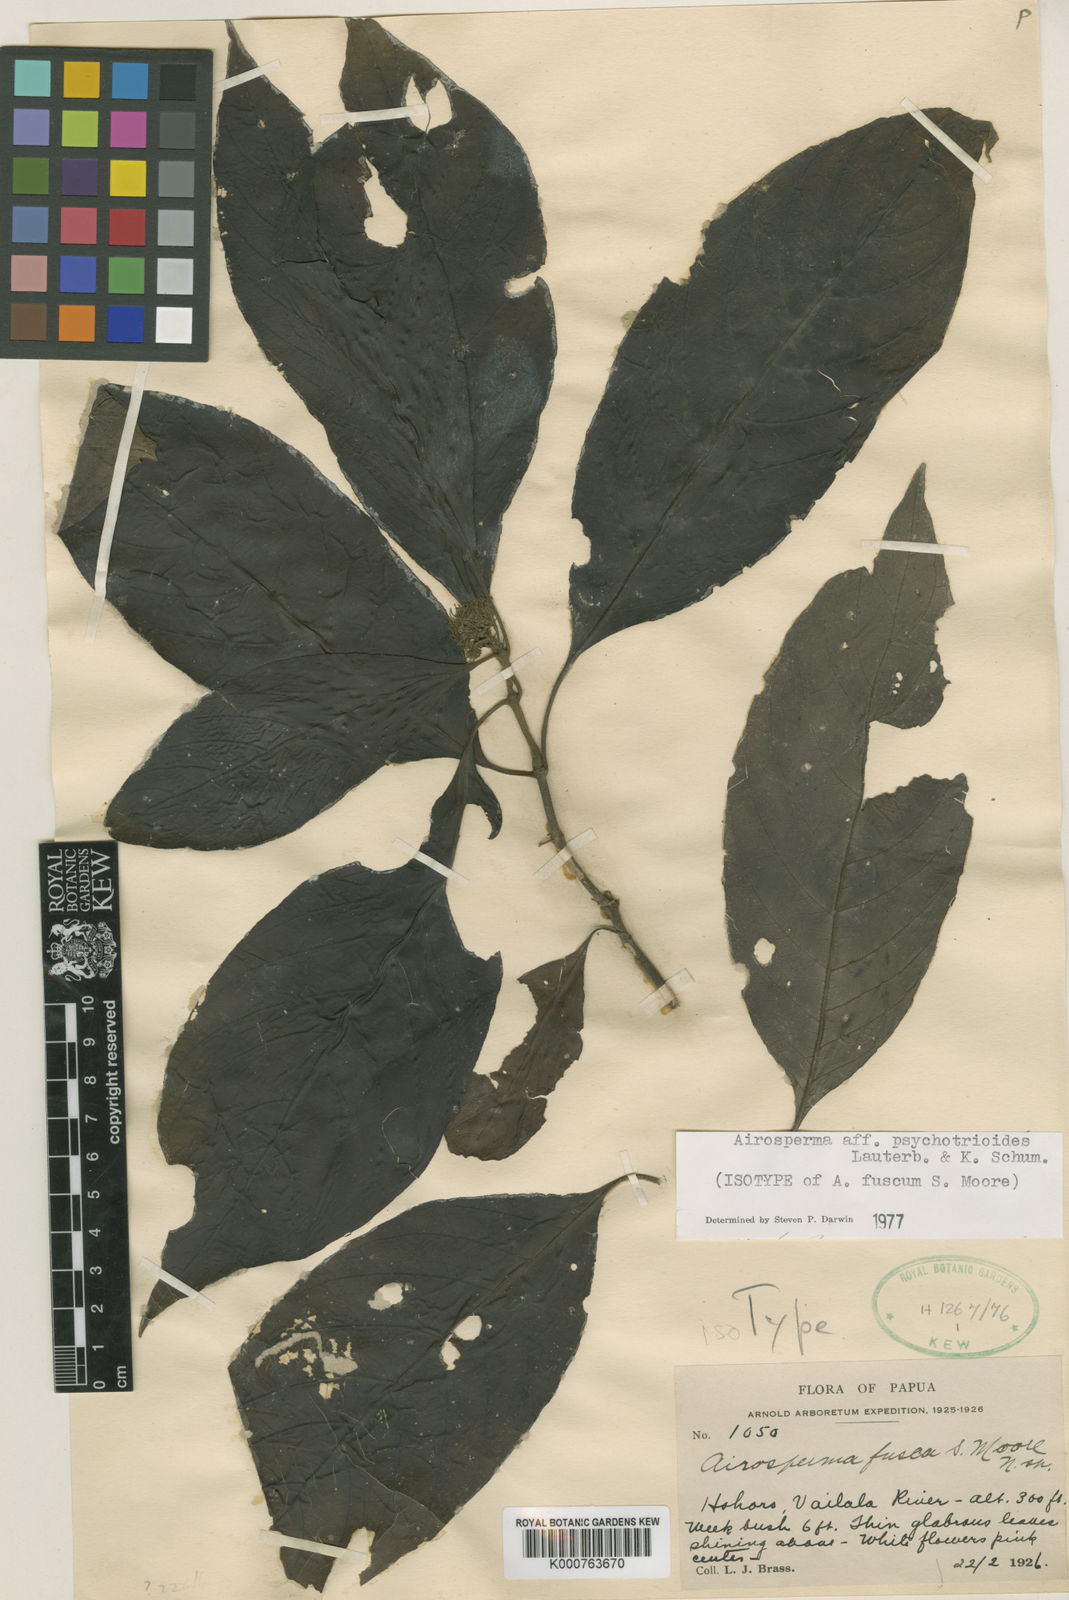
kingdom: Plantae
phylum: Tracheophyta
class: Magnoliopsida
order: Gentianales
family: Rubiaceae
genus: Airosperma
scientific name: Airosperma fuscum
